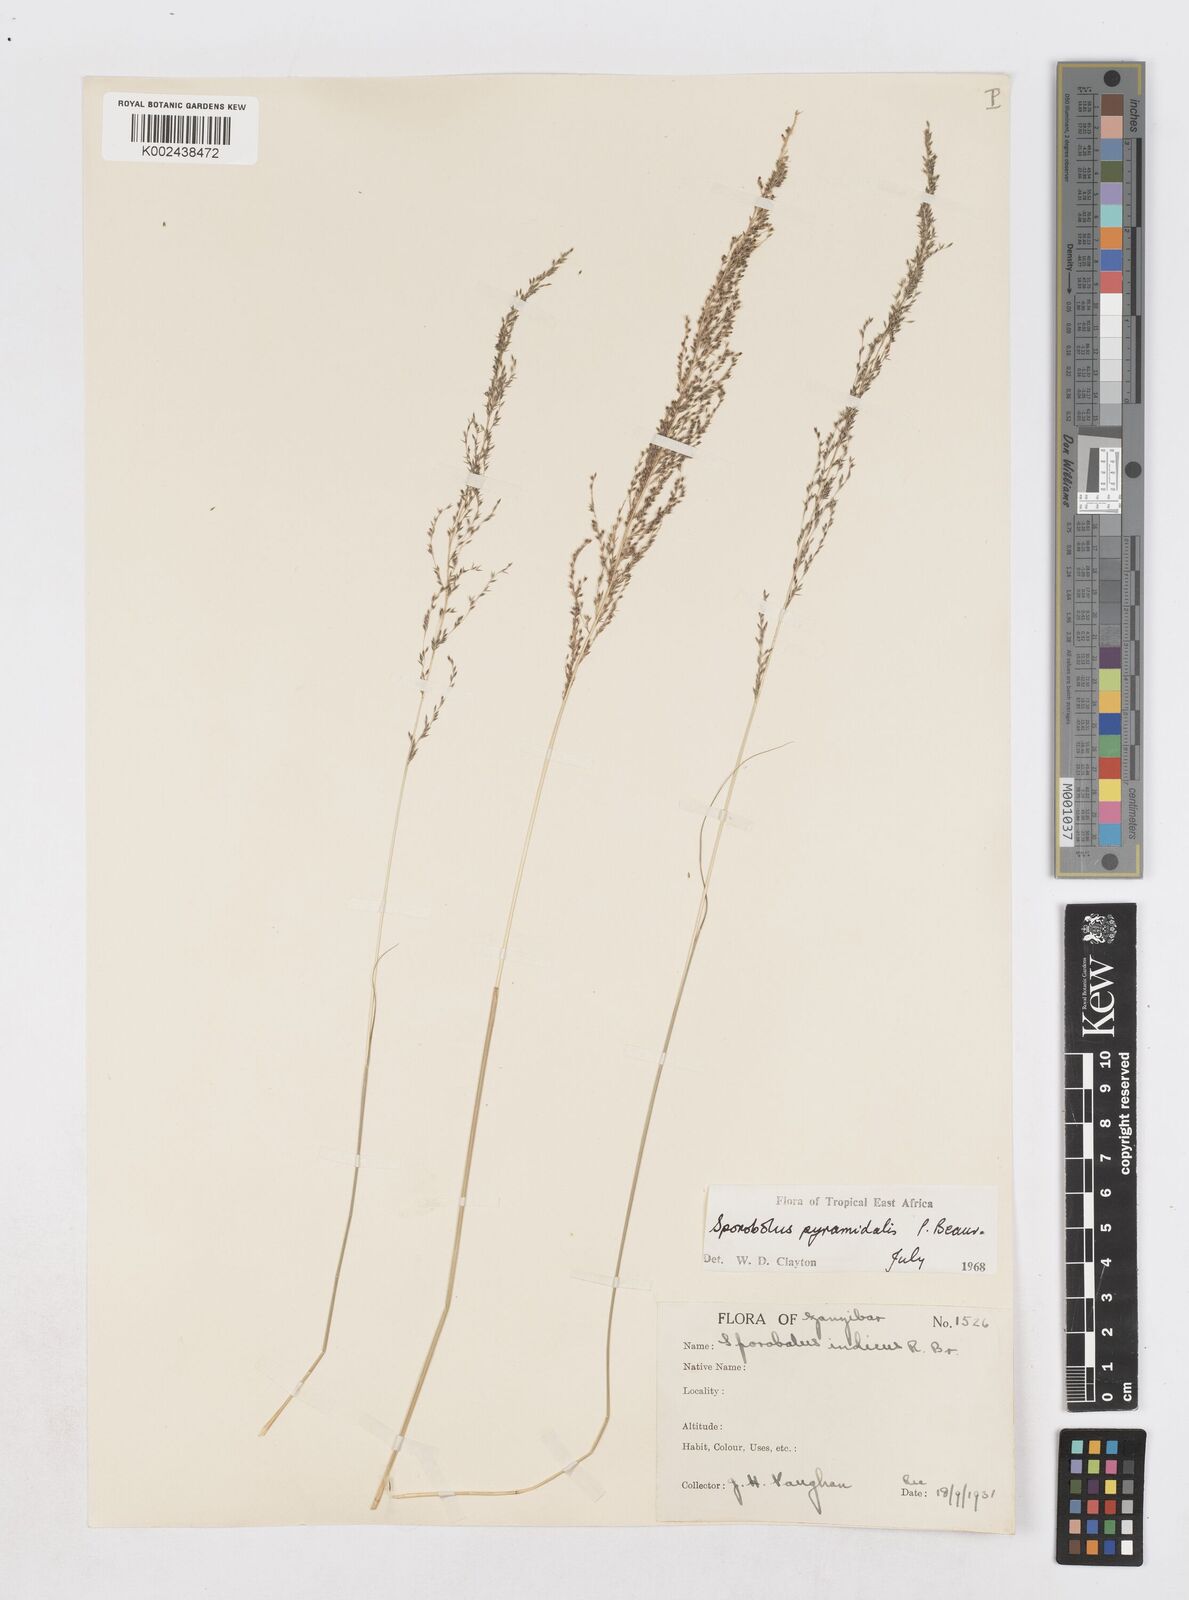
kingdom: Plantae
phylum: Tracheophyta
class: Liliopsida
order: Poales
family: Poaceae
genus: Sporobolus
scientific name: Sporobolus pyramidalis
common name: West indian dropseed
